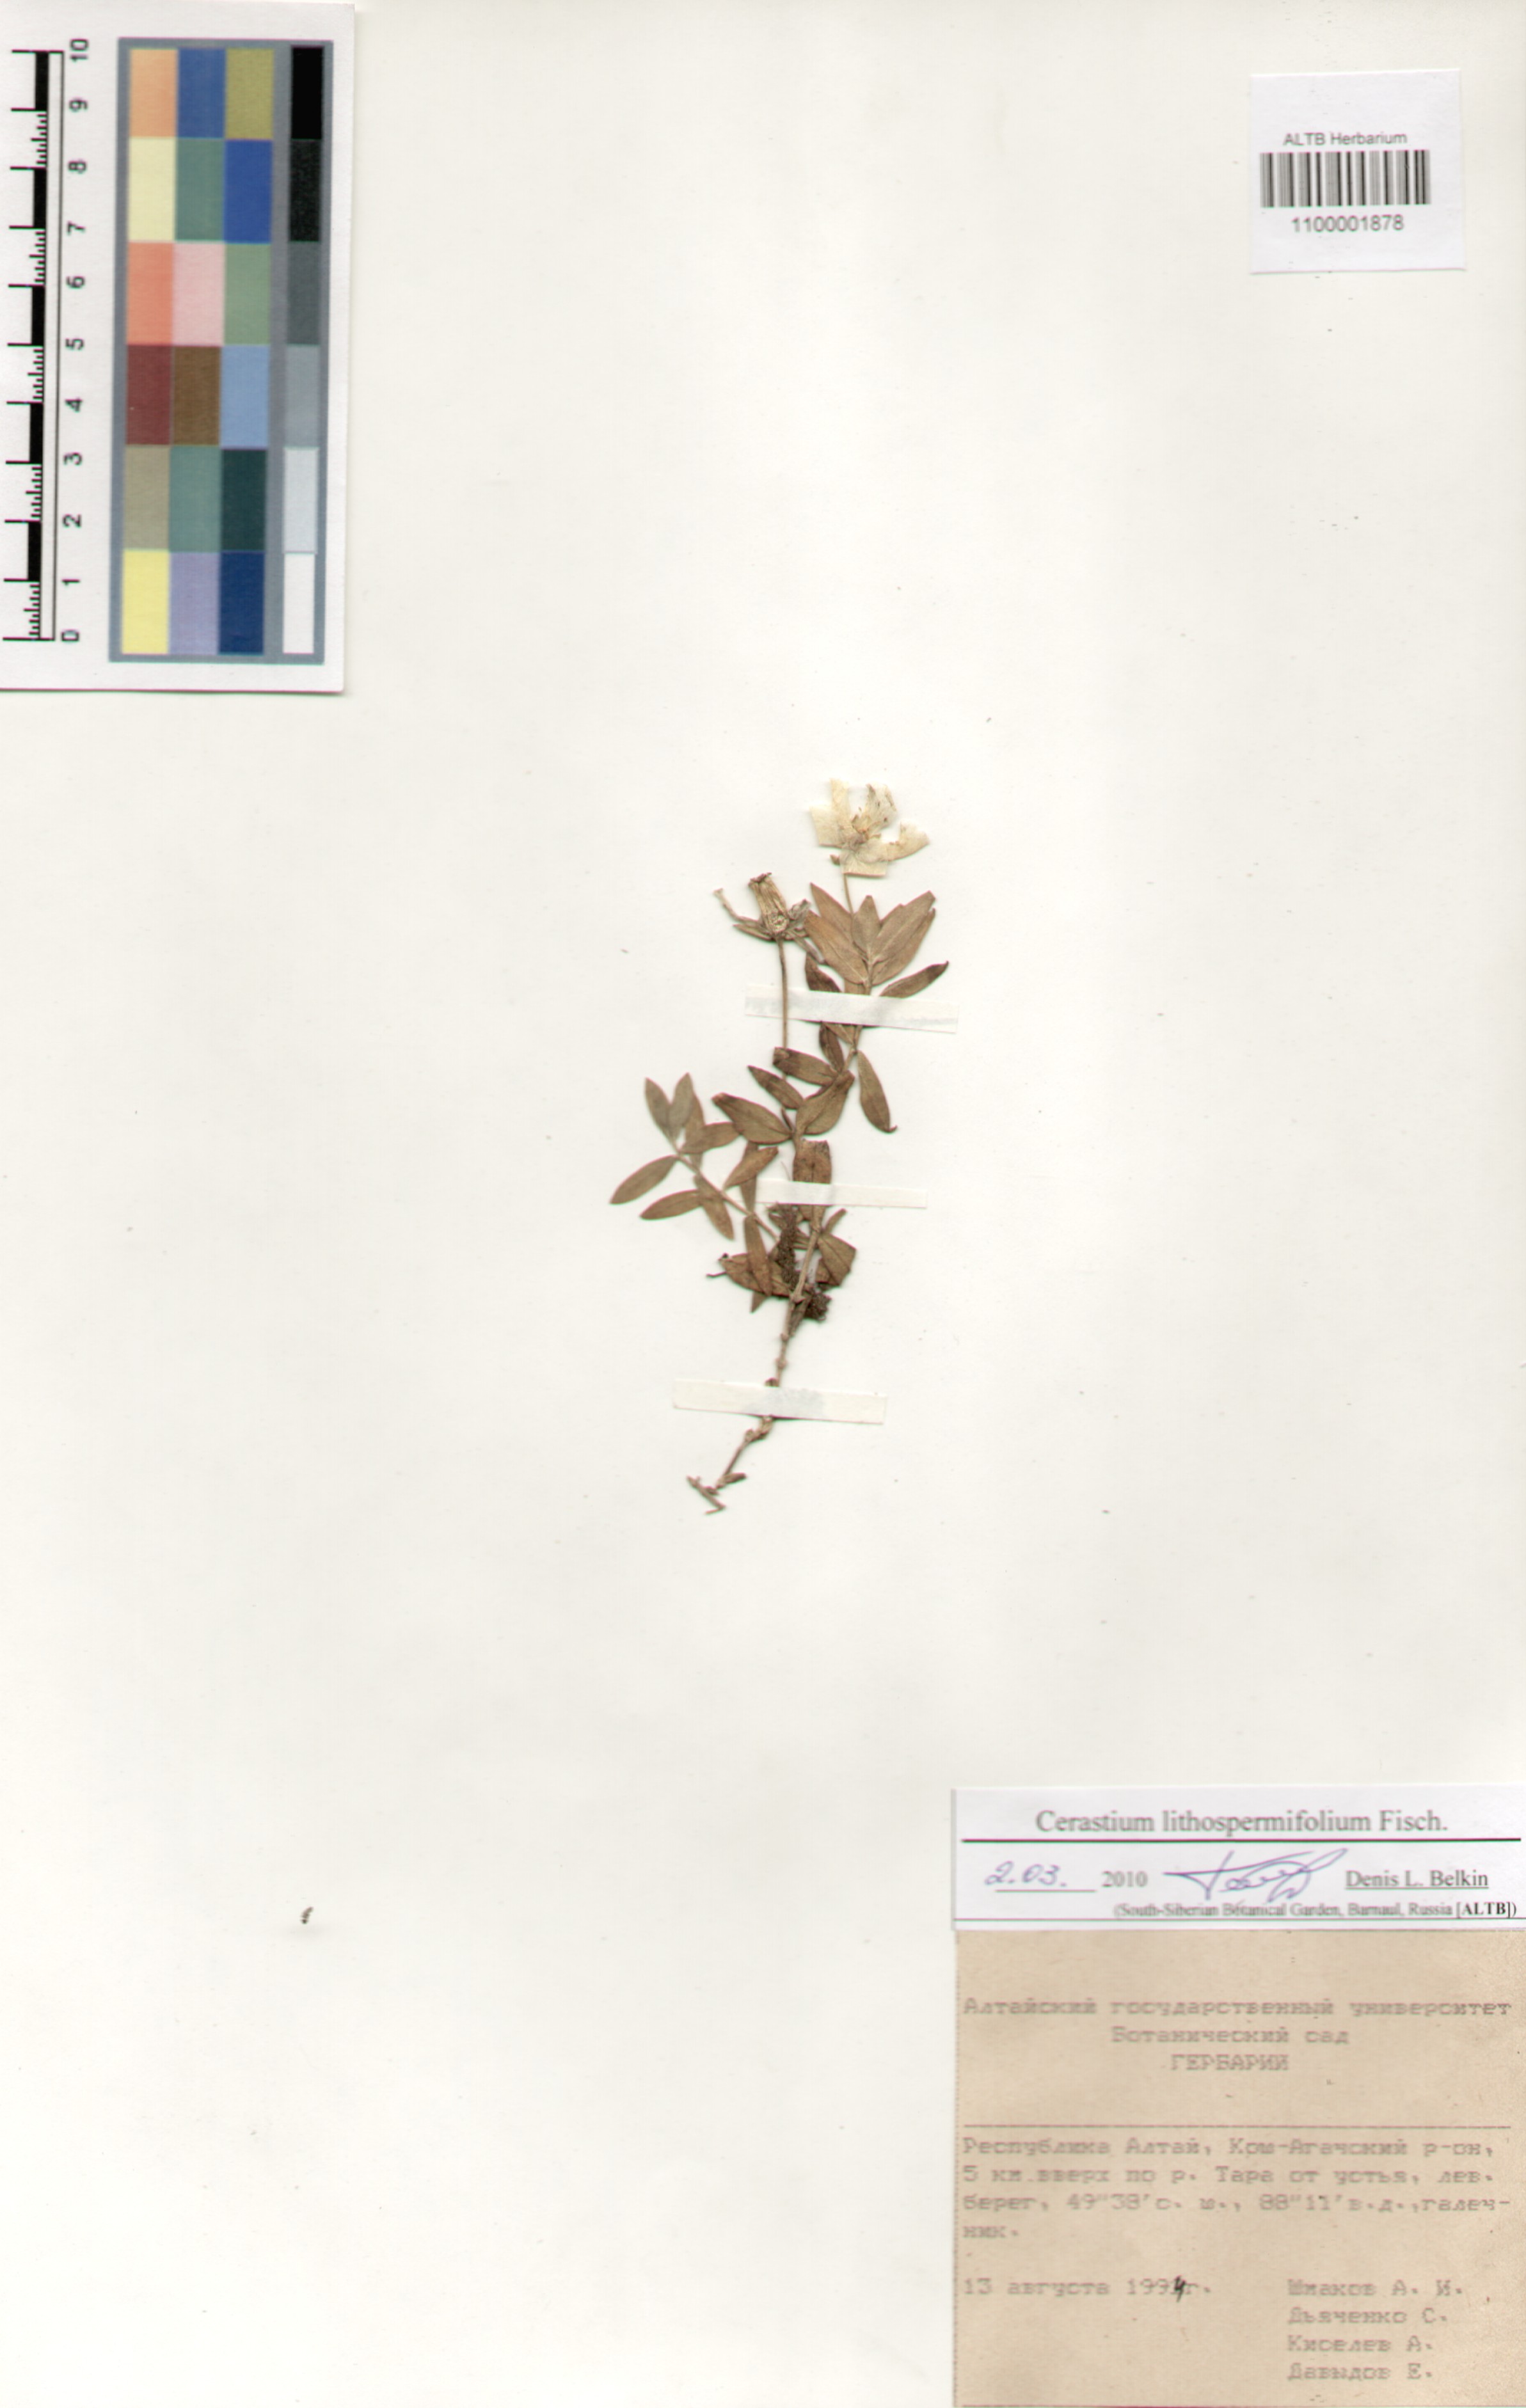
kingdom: Plantae
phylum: Tracheophyta
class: Magnoliopsida
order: Caryophyllales
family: Caryophyllaceae
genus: Cerastium
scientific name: Cerastium lithospermifolium
